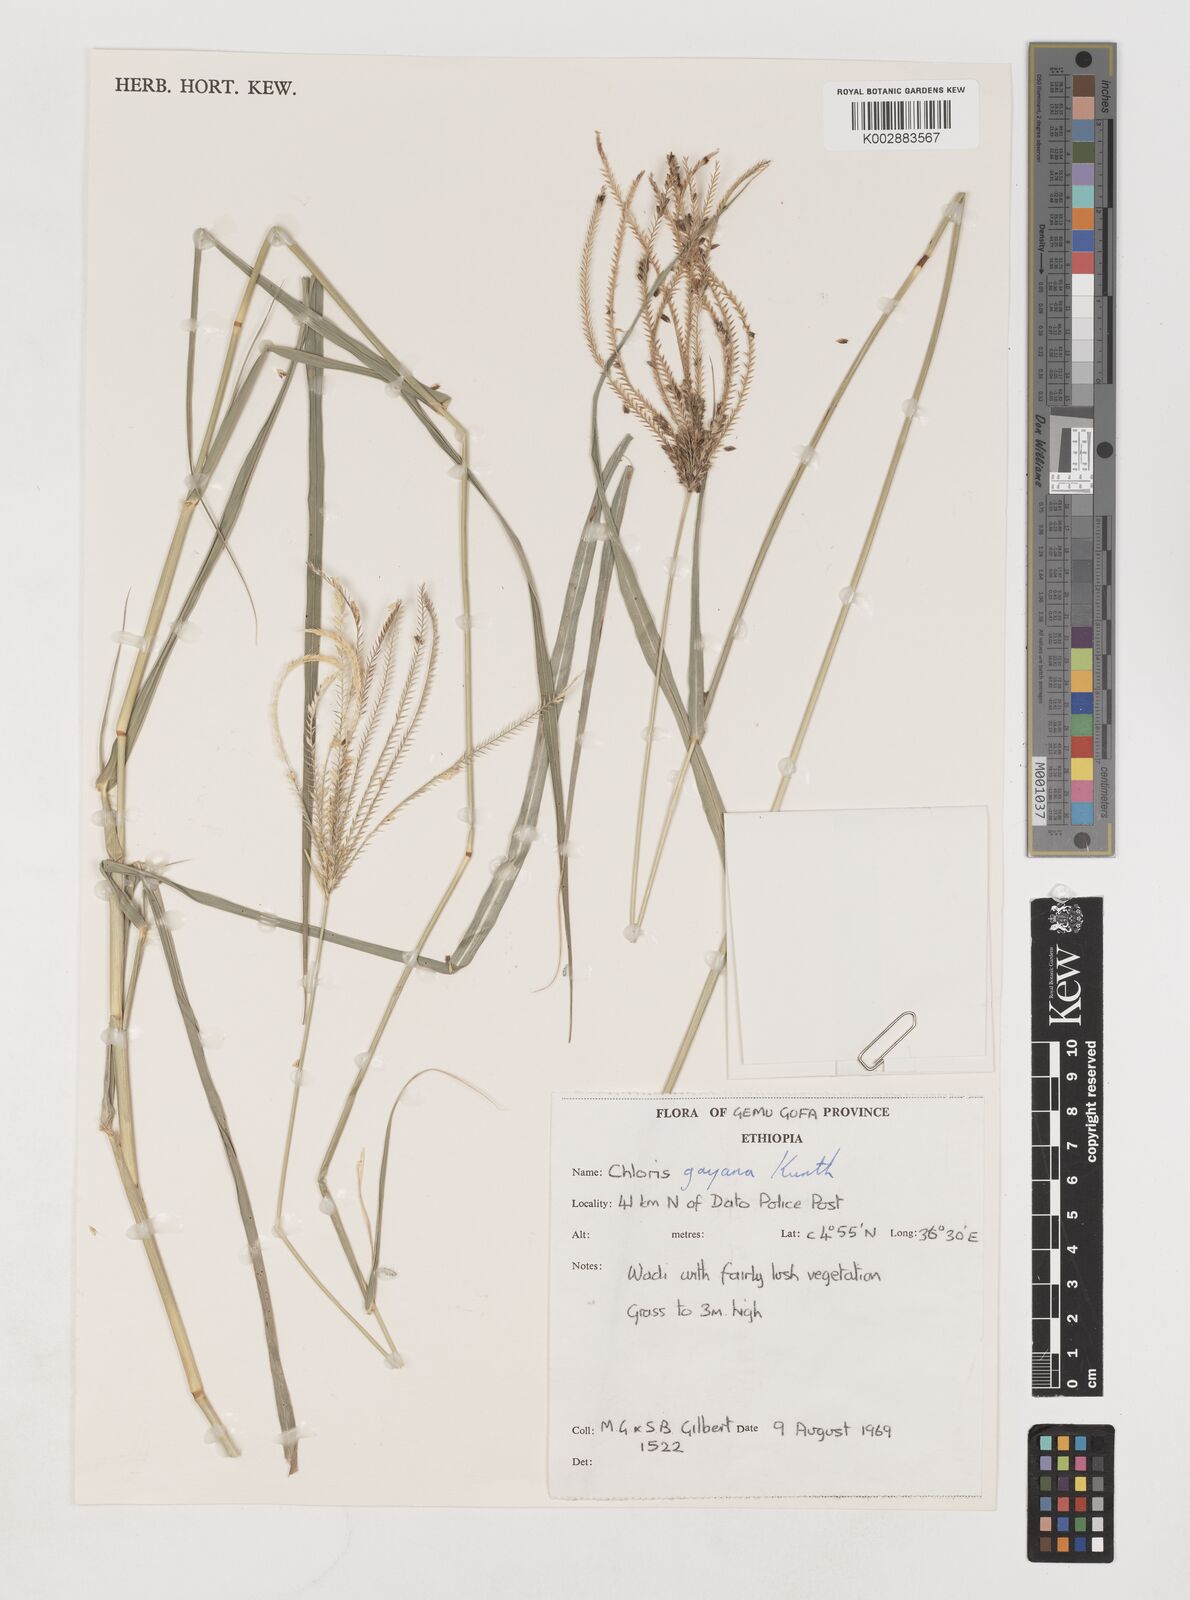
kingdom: Plantae
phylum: Tracheophyta
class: Liliopsida
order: Poales
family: Poaceae
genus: Chloris
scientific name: Chloris gayana
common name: Rhodes grass
